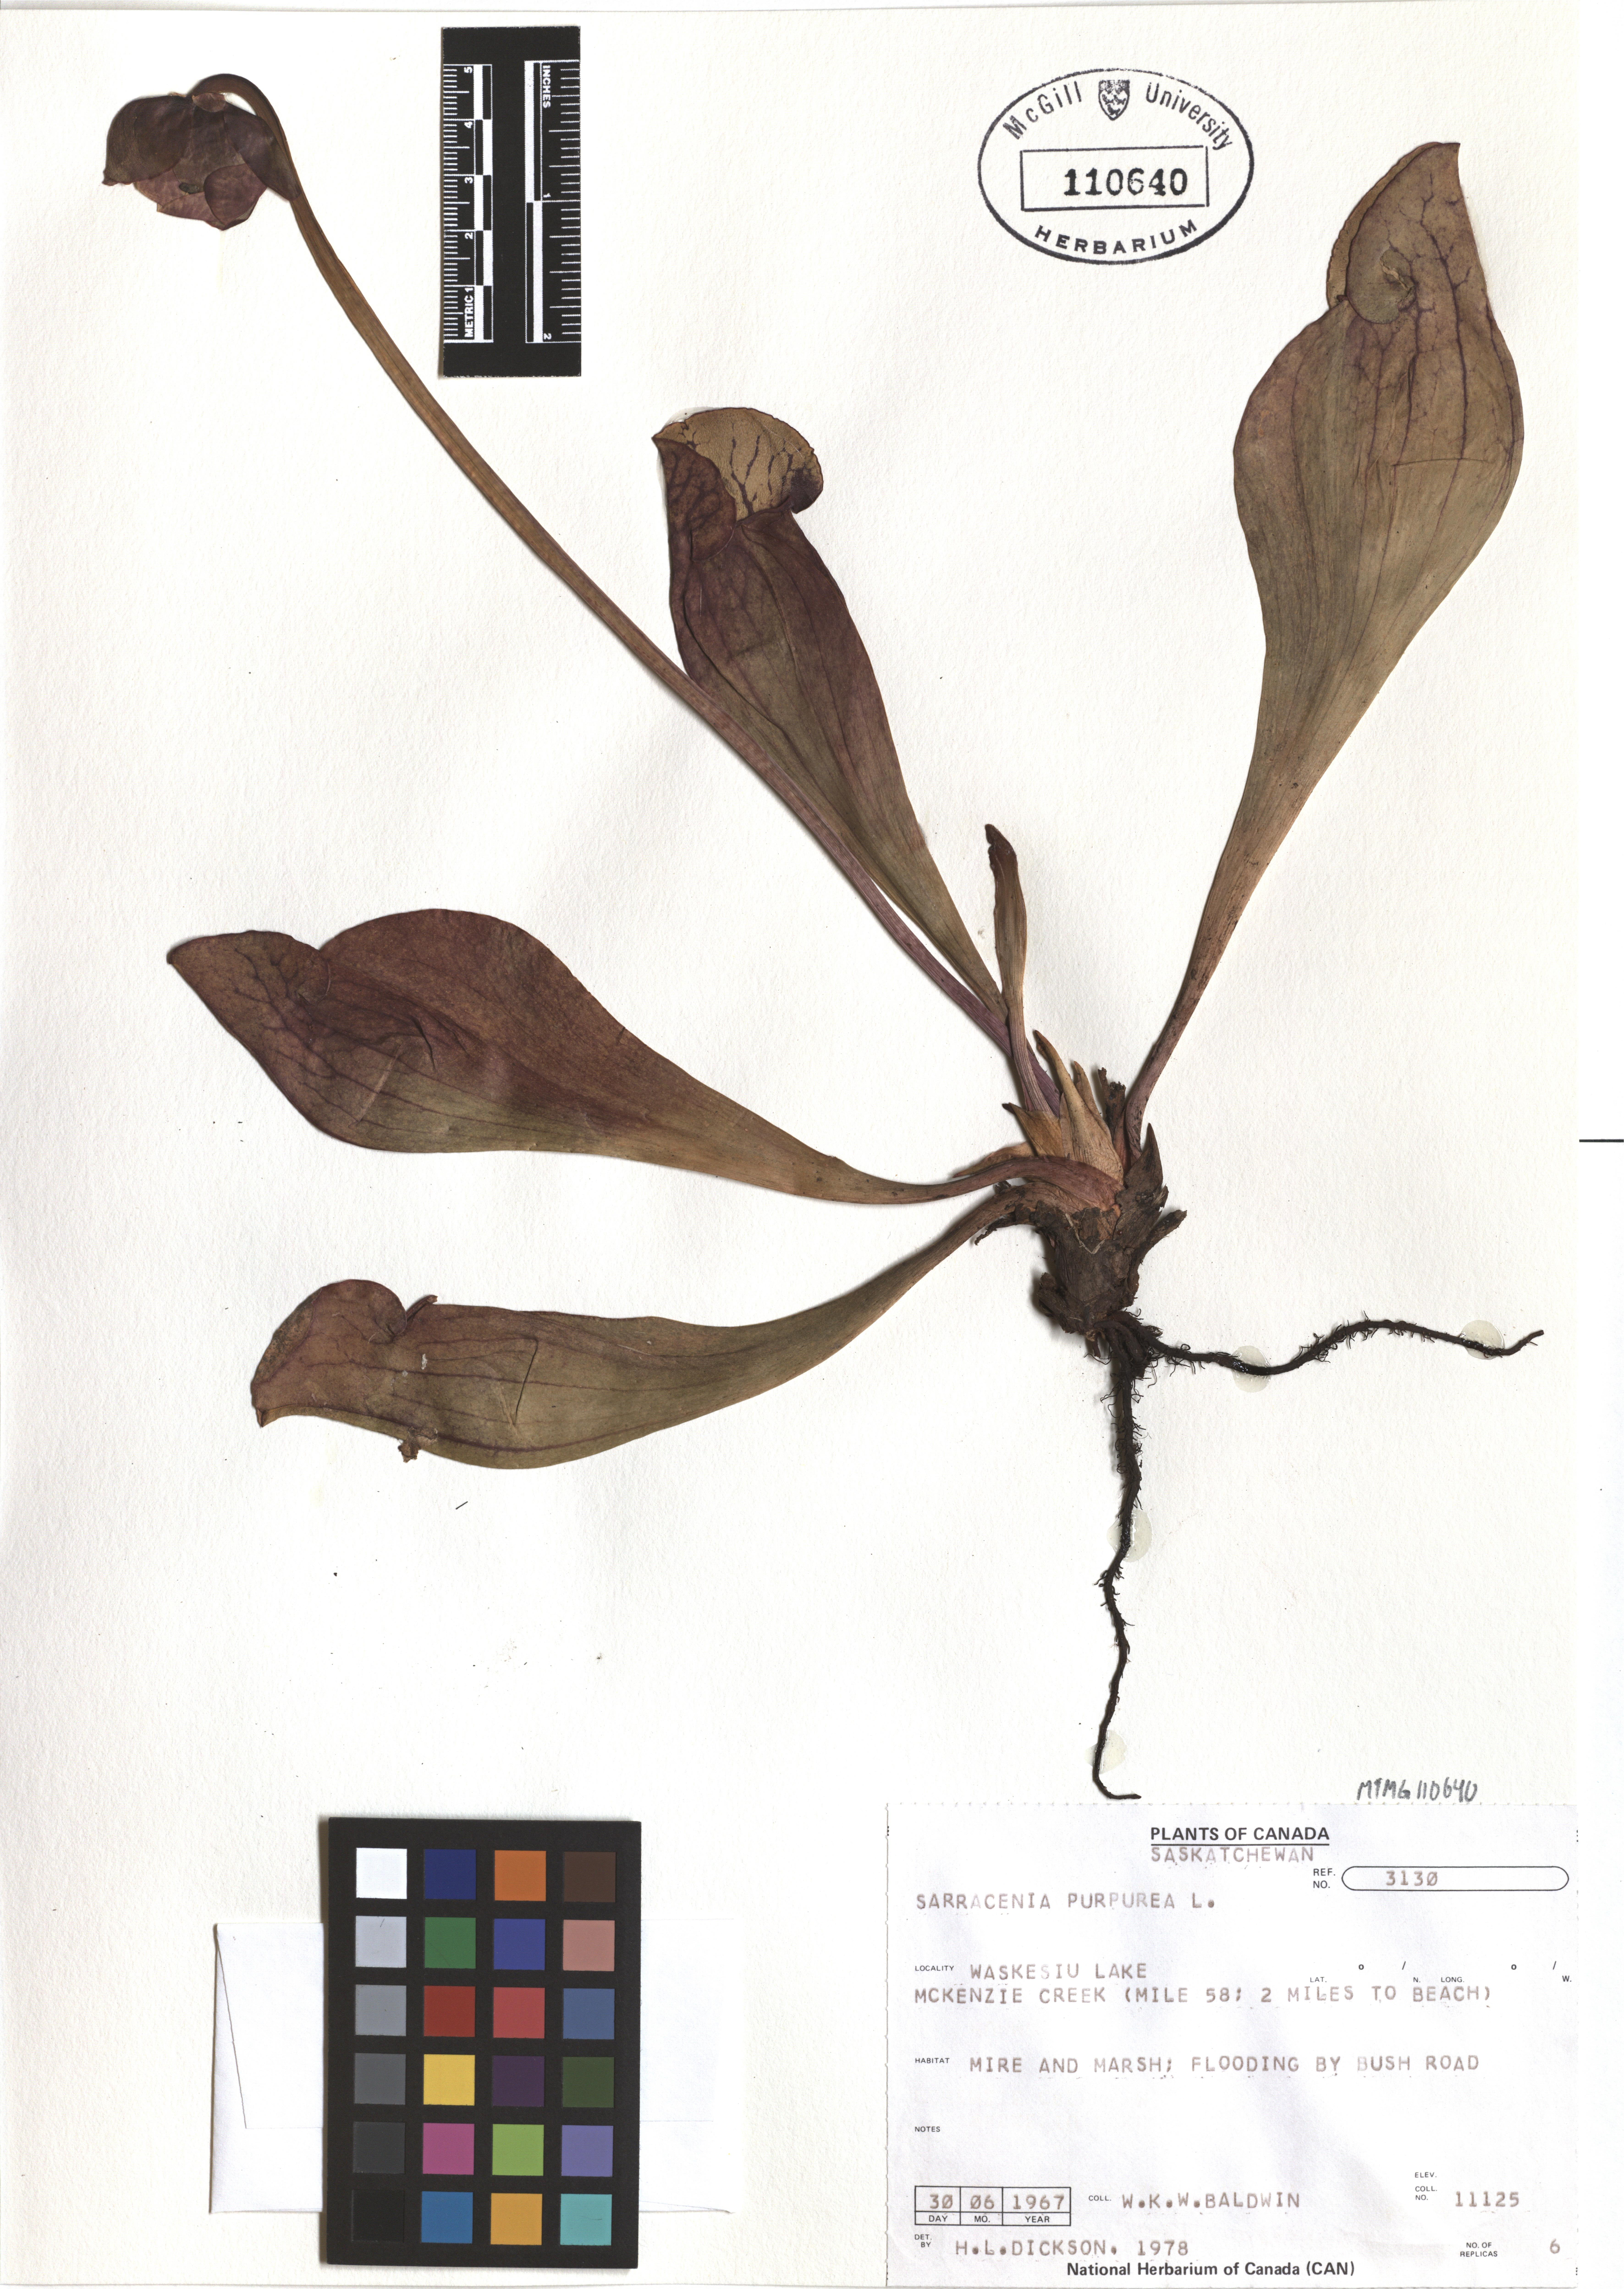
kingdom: Plantae
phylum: Tracheophyta
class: Magnoliopsida
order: Ericales
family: Sarraceniaceae
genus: Sarracenia
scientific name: Sarracenia purpurea
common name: Pitcherplant
